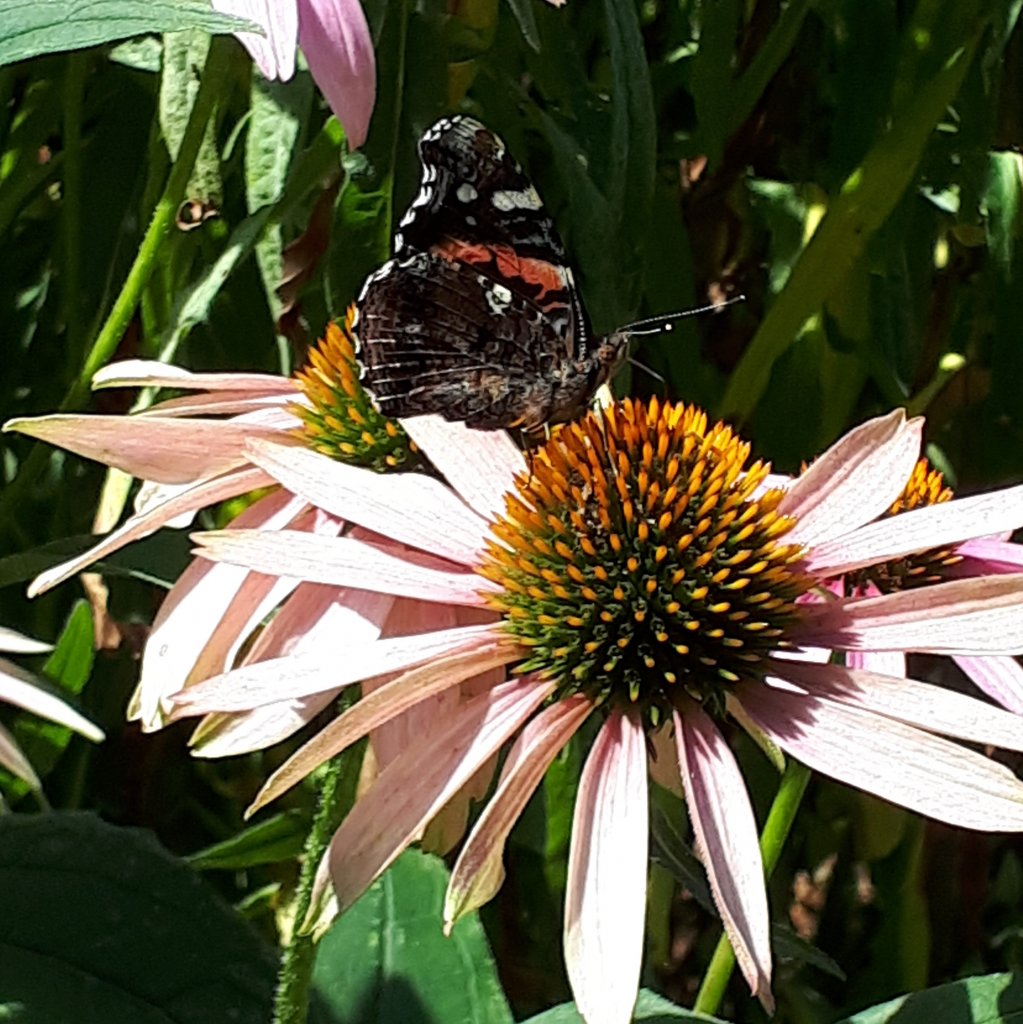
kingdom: Animalia
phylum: Arthropoda
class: Insecta
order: Lepidoptera
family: Nymphalidae
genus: Vanessa
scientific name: Vanessa atalanta
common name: Red Admiral
